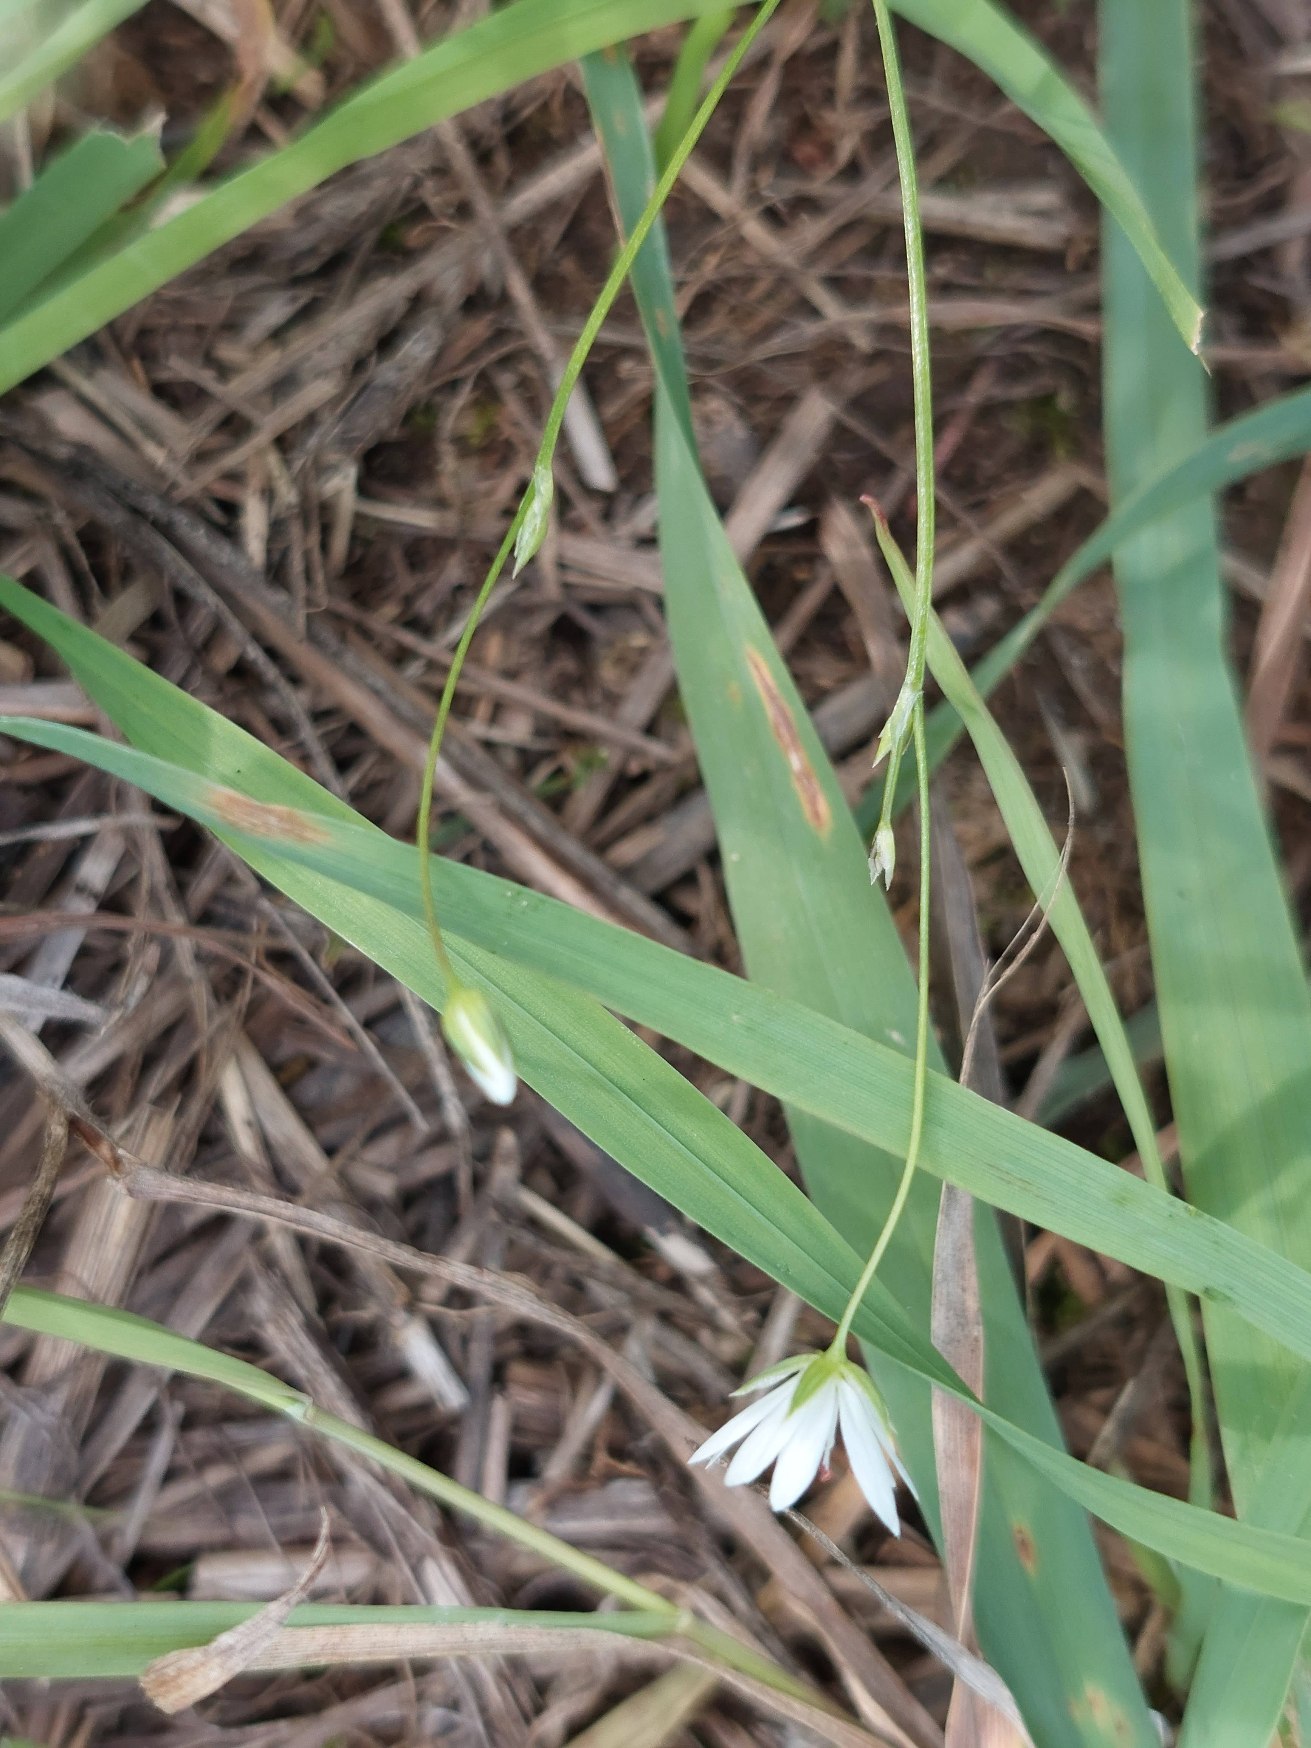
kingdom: Plantae
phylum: Tracheophyta
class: Magnoliopsida
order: Caryophyllales
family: Caryophyllaceae
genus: Stellaria
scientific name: Stellaria graminea
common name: Græsbladet fladstjerne
